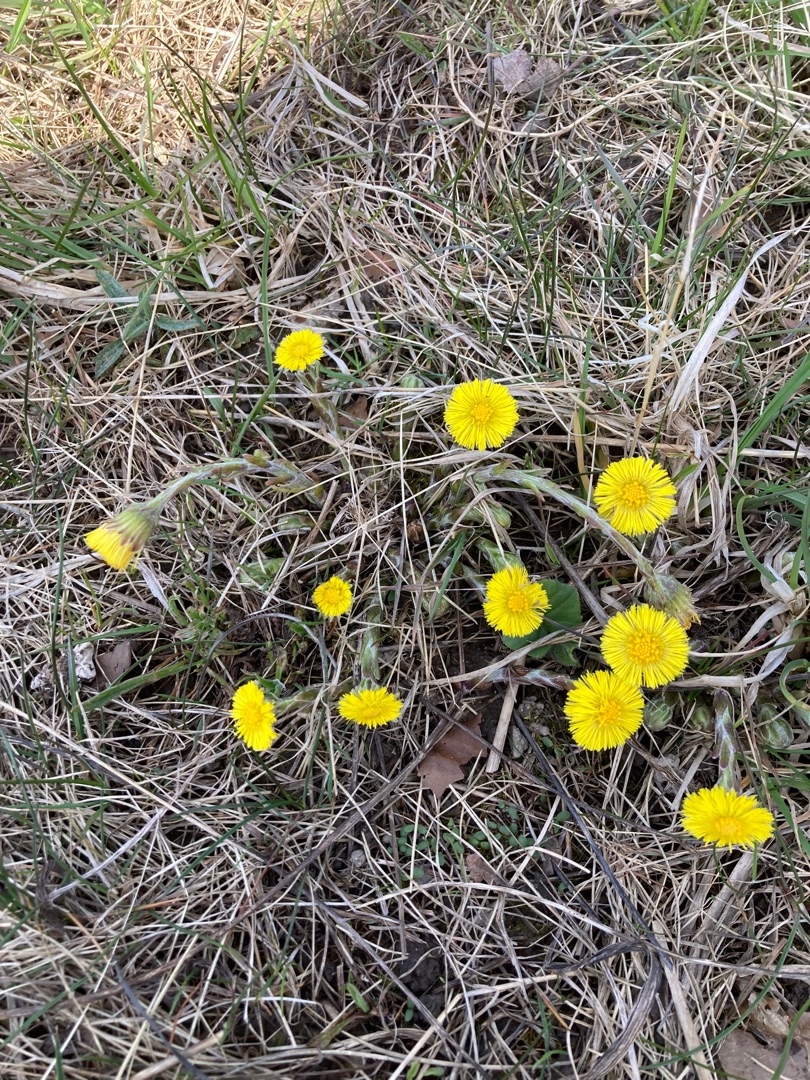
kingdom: Plantae
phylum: Tracheophyta
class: Magnoliopsida
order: Asterales
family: Asteraceae
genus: Tussilago
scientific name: Tussilago farfara
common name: Følfod
